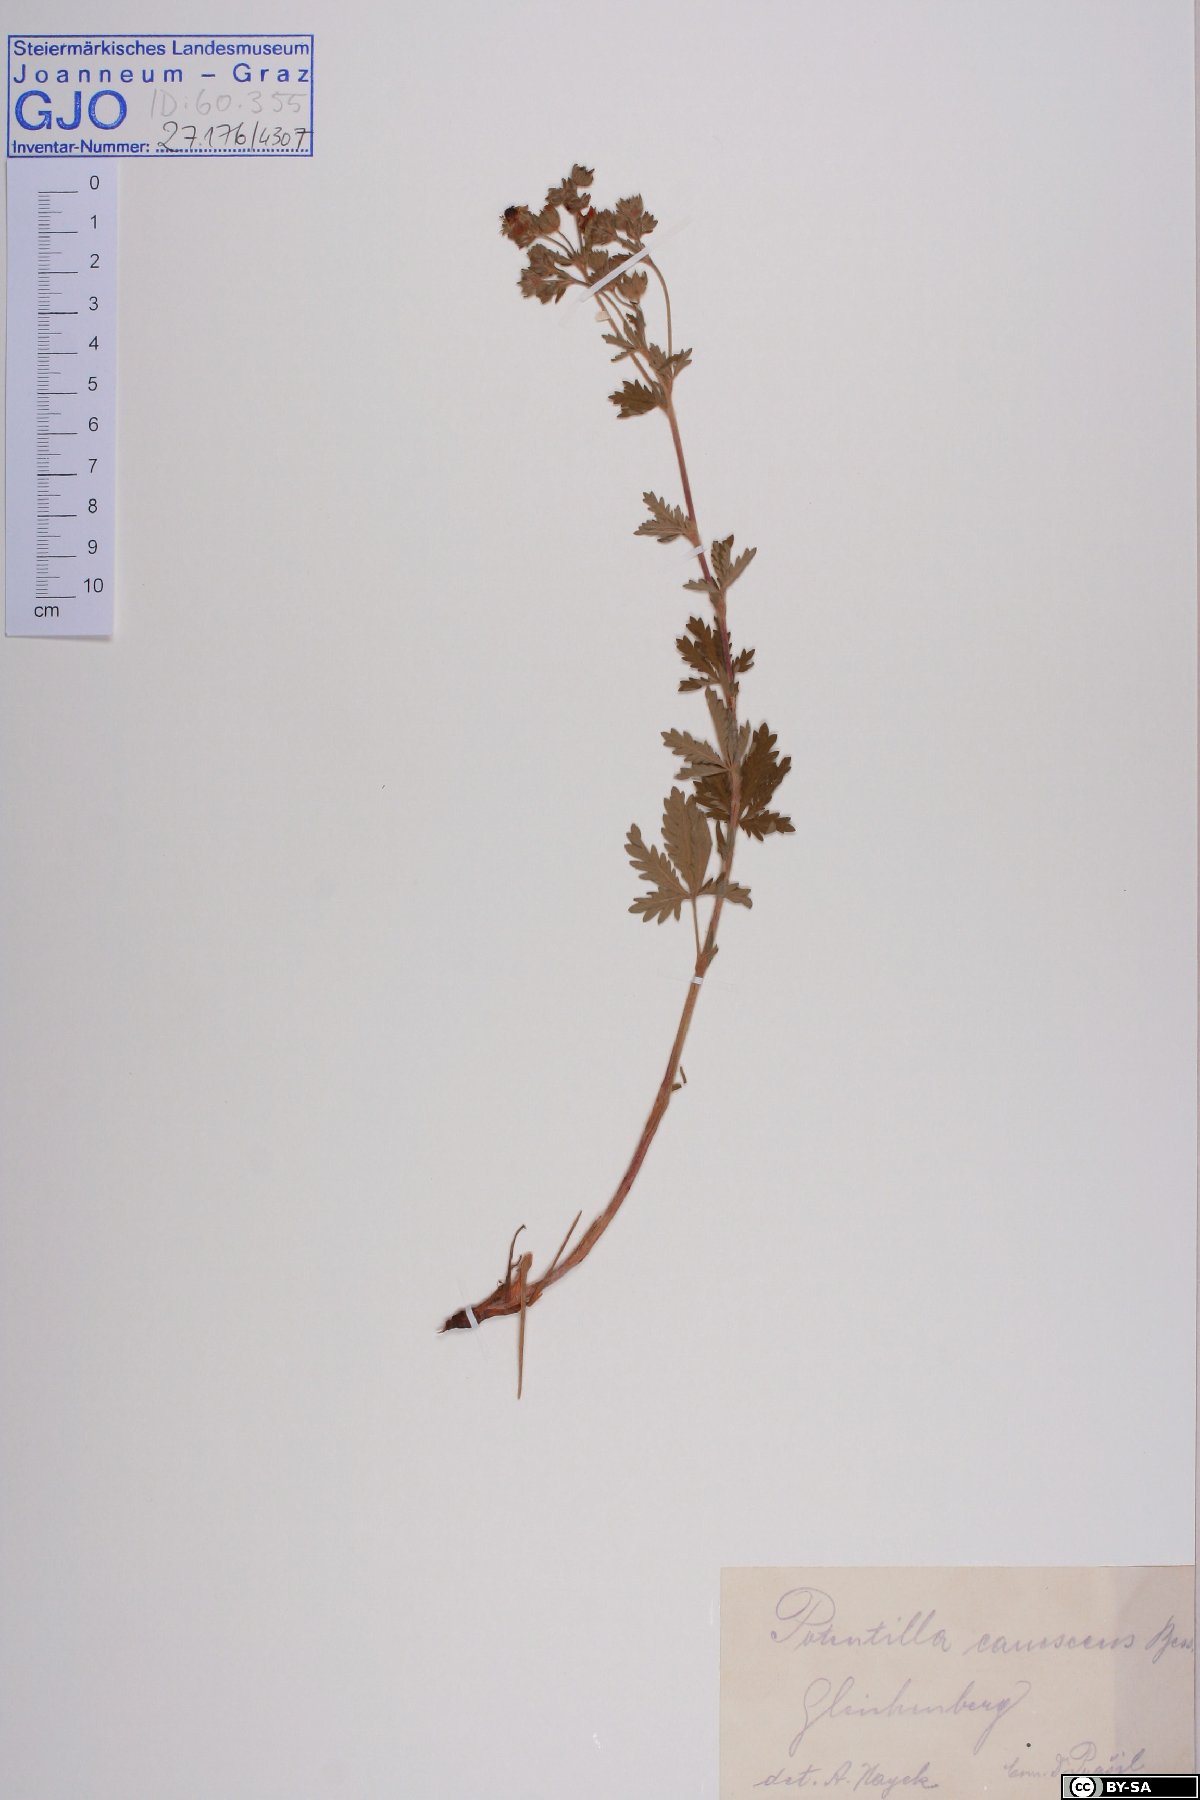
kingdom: Plantae
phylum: Tracheophyta
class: Magnoliopsida
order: Rosales
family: Rosaceae
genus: Potentilla
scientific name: Potentilla inclinata
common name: Grey cinquefoil
